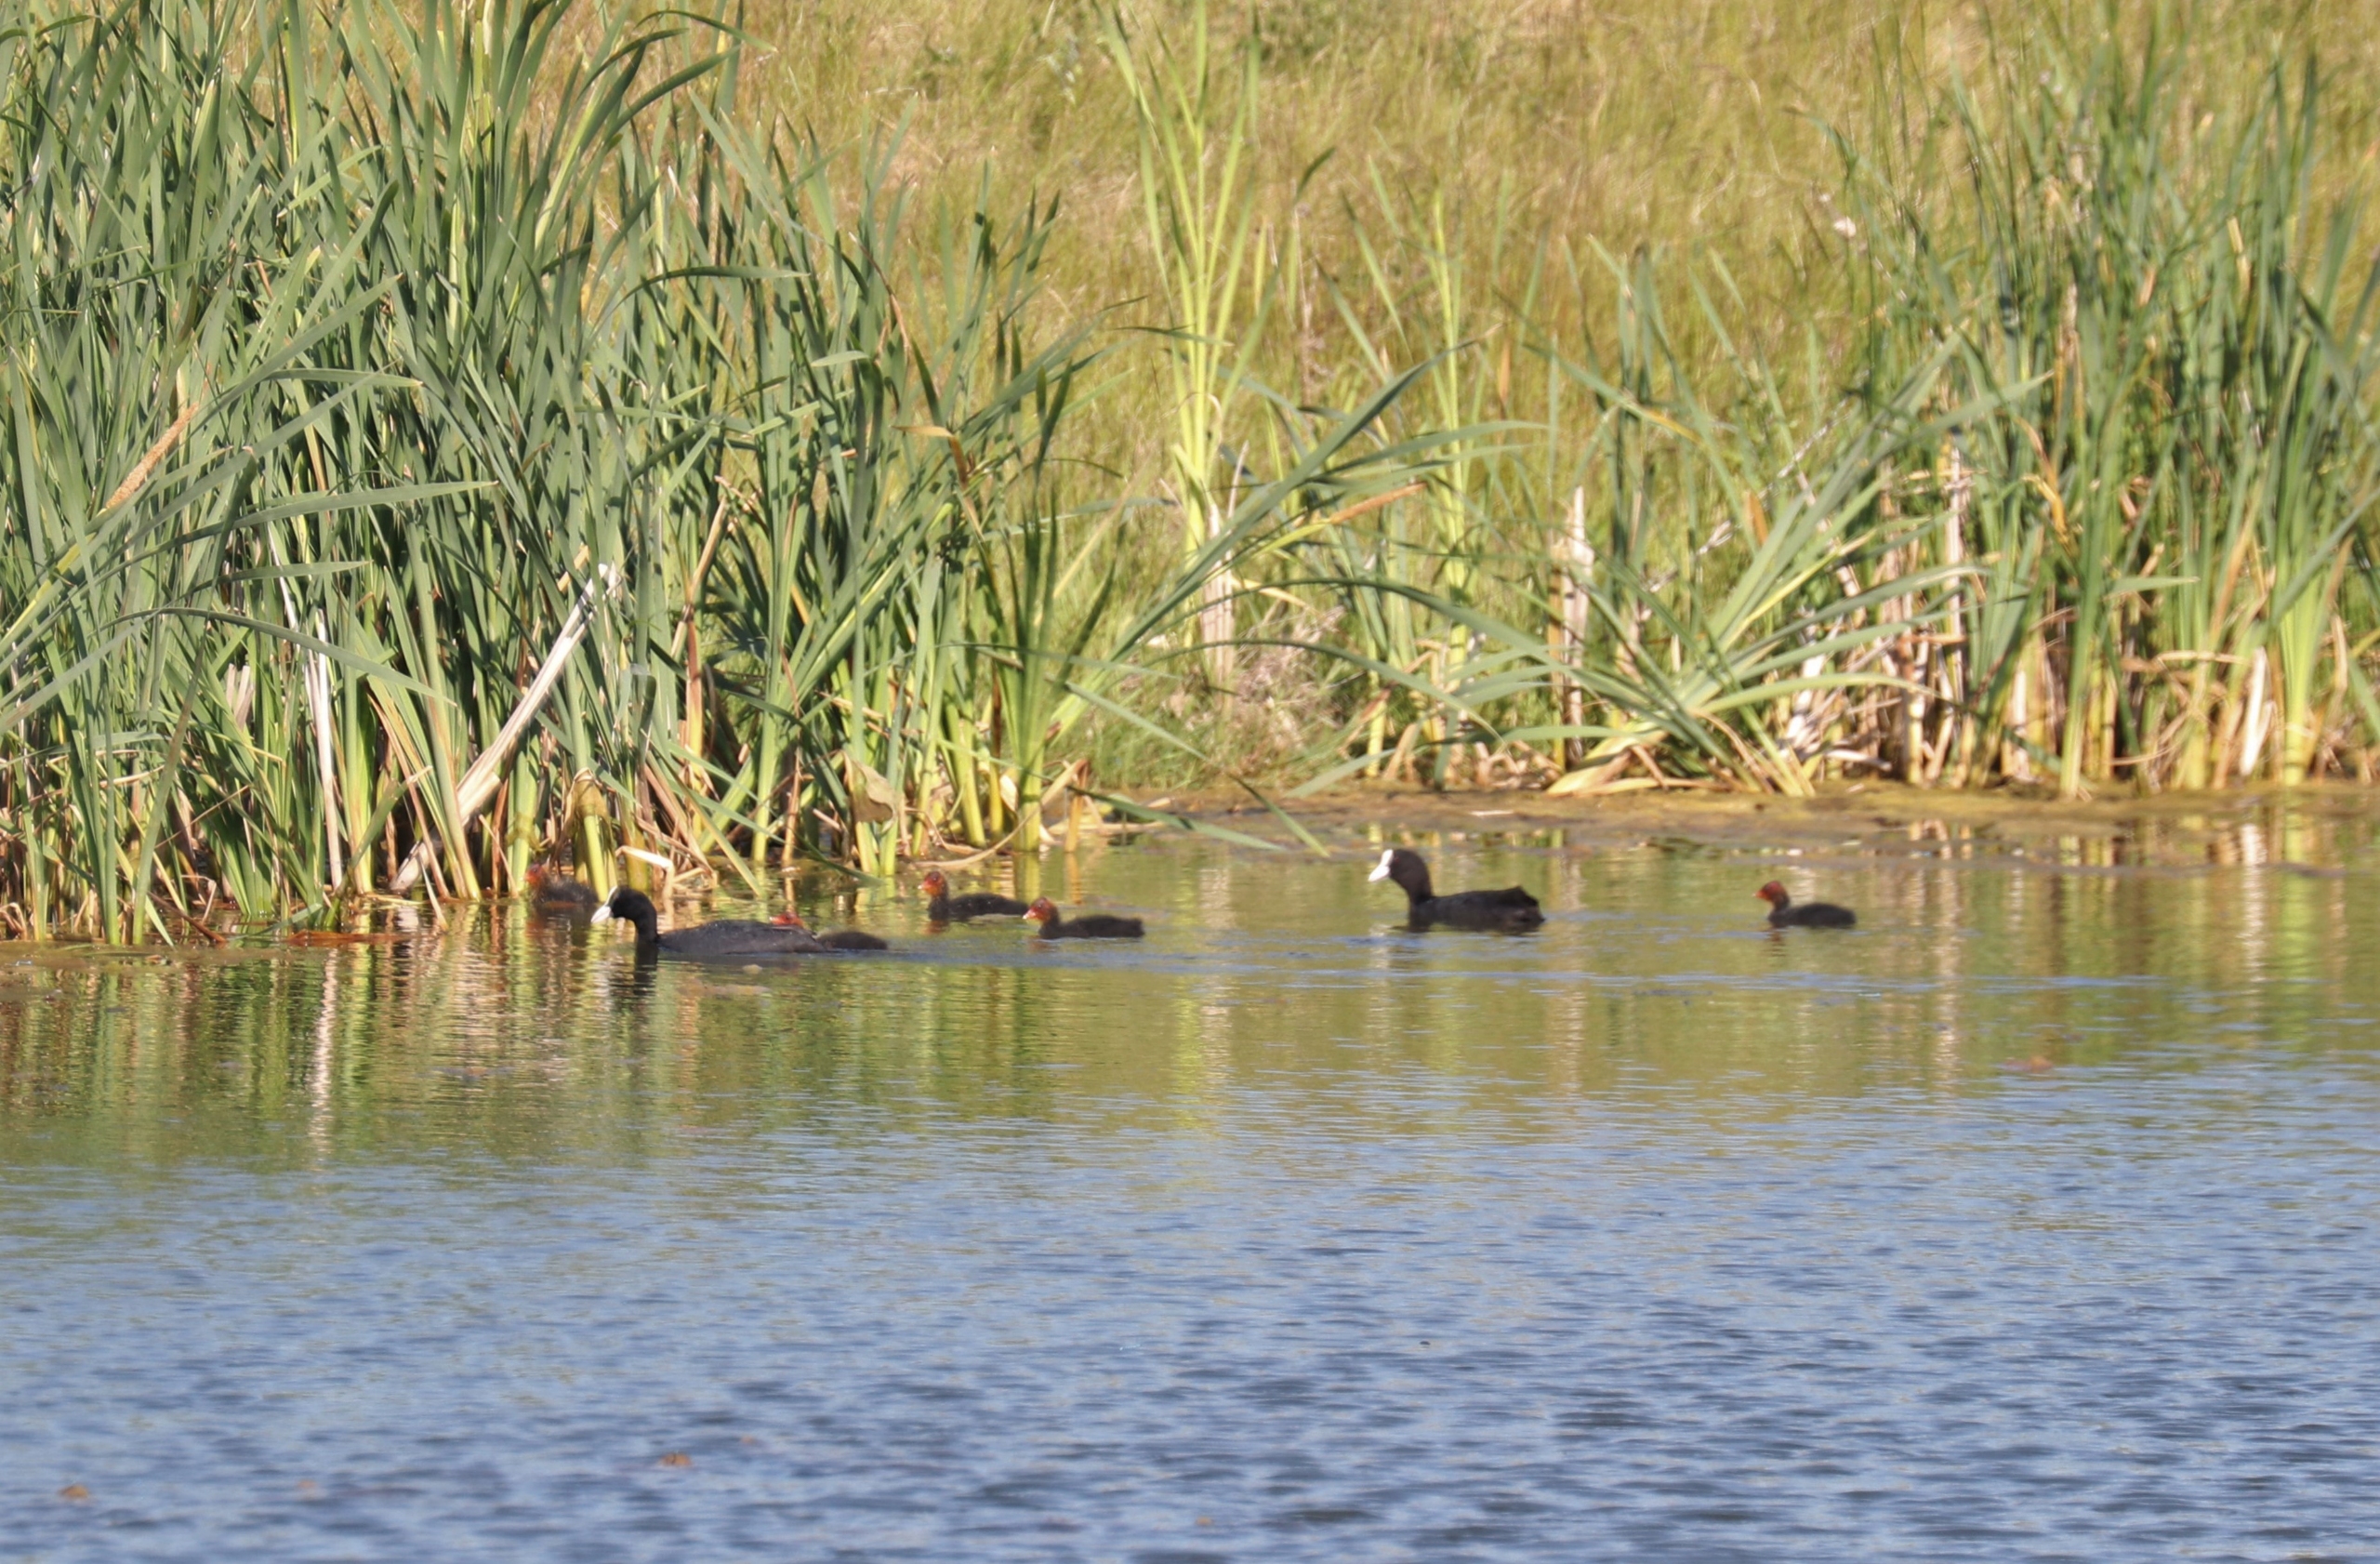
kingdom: Animalia
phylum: Chordata
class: Aves
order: Gruiformes
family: Rallidae
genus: Fulica
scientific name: Fulica atra
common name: Blishøne
